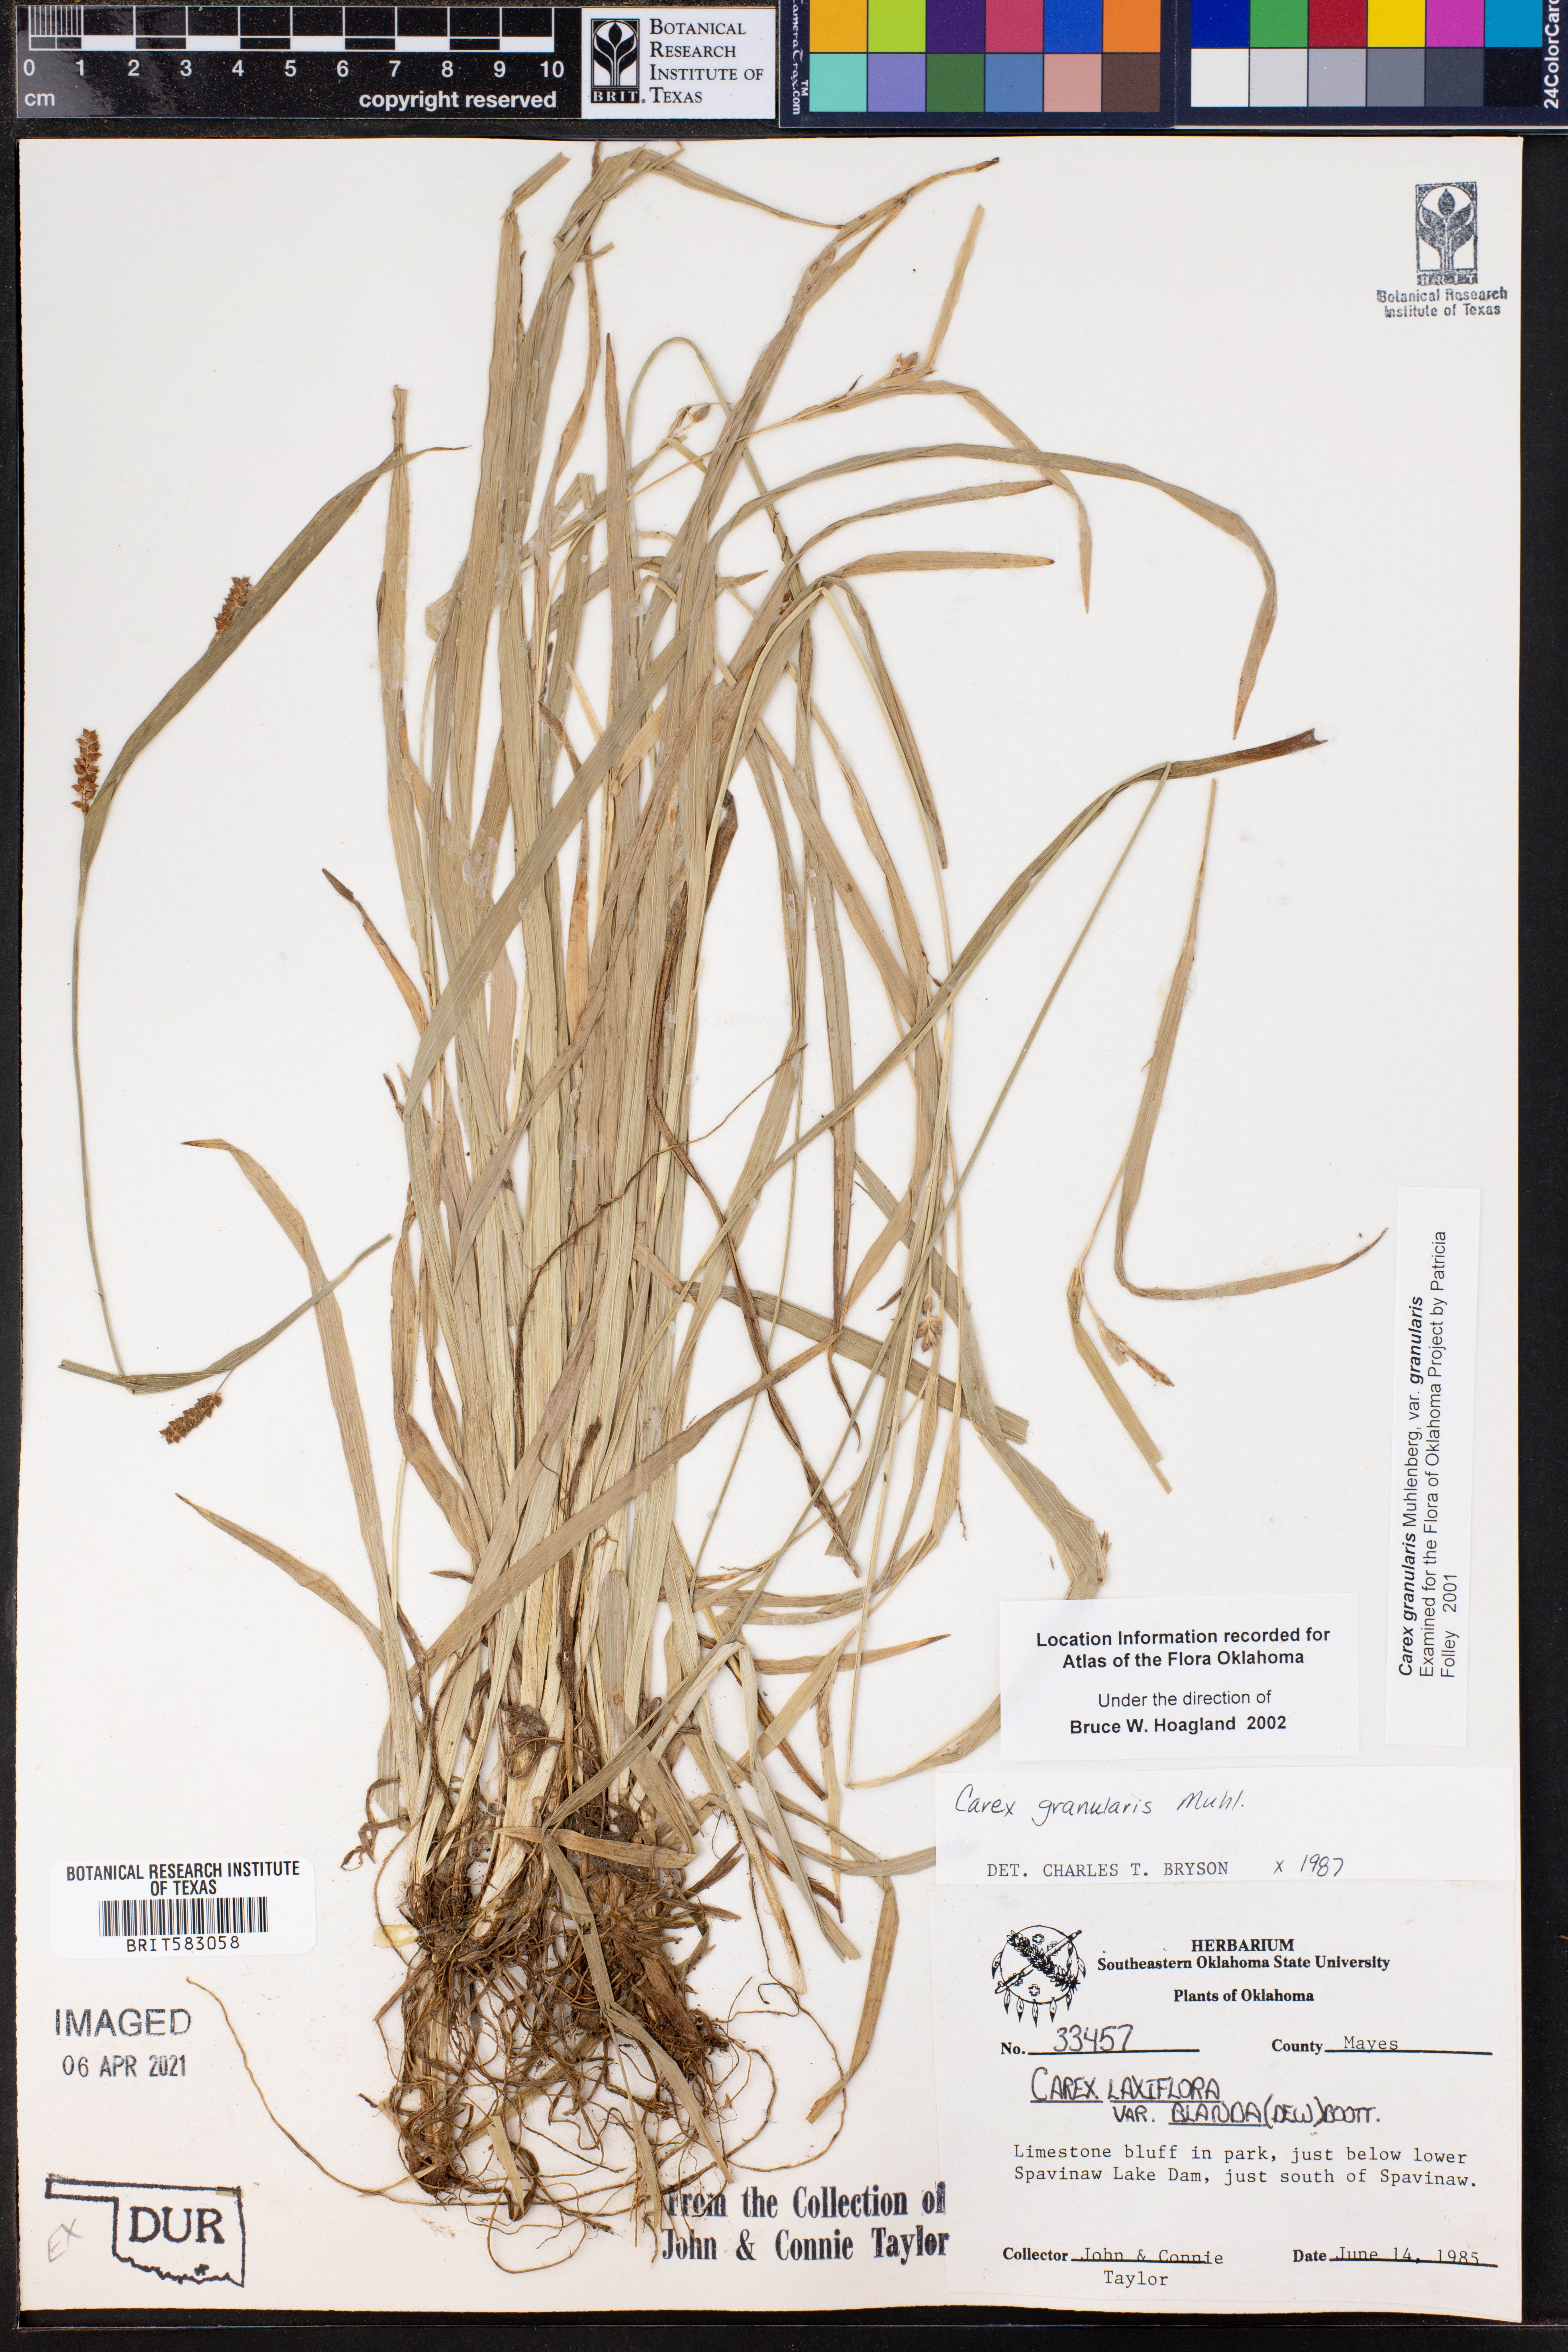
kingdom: Plantae
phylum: Tracheophyta
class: Liliopsida
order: Poales
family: Cyperaceae
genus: Carex
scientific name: Carex granularis
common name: Granular sedge
